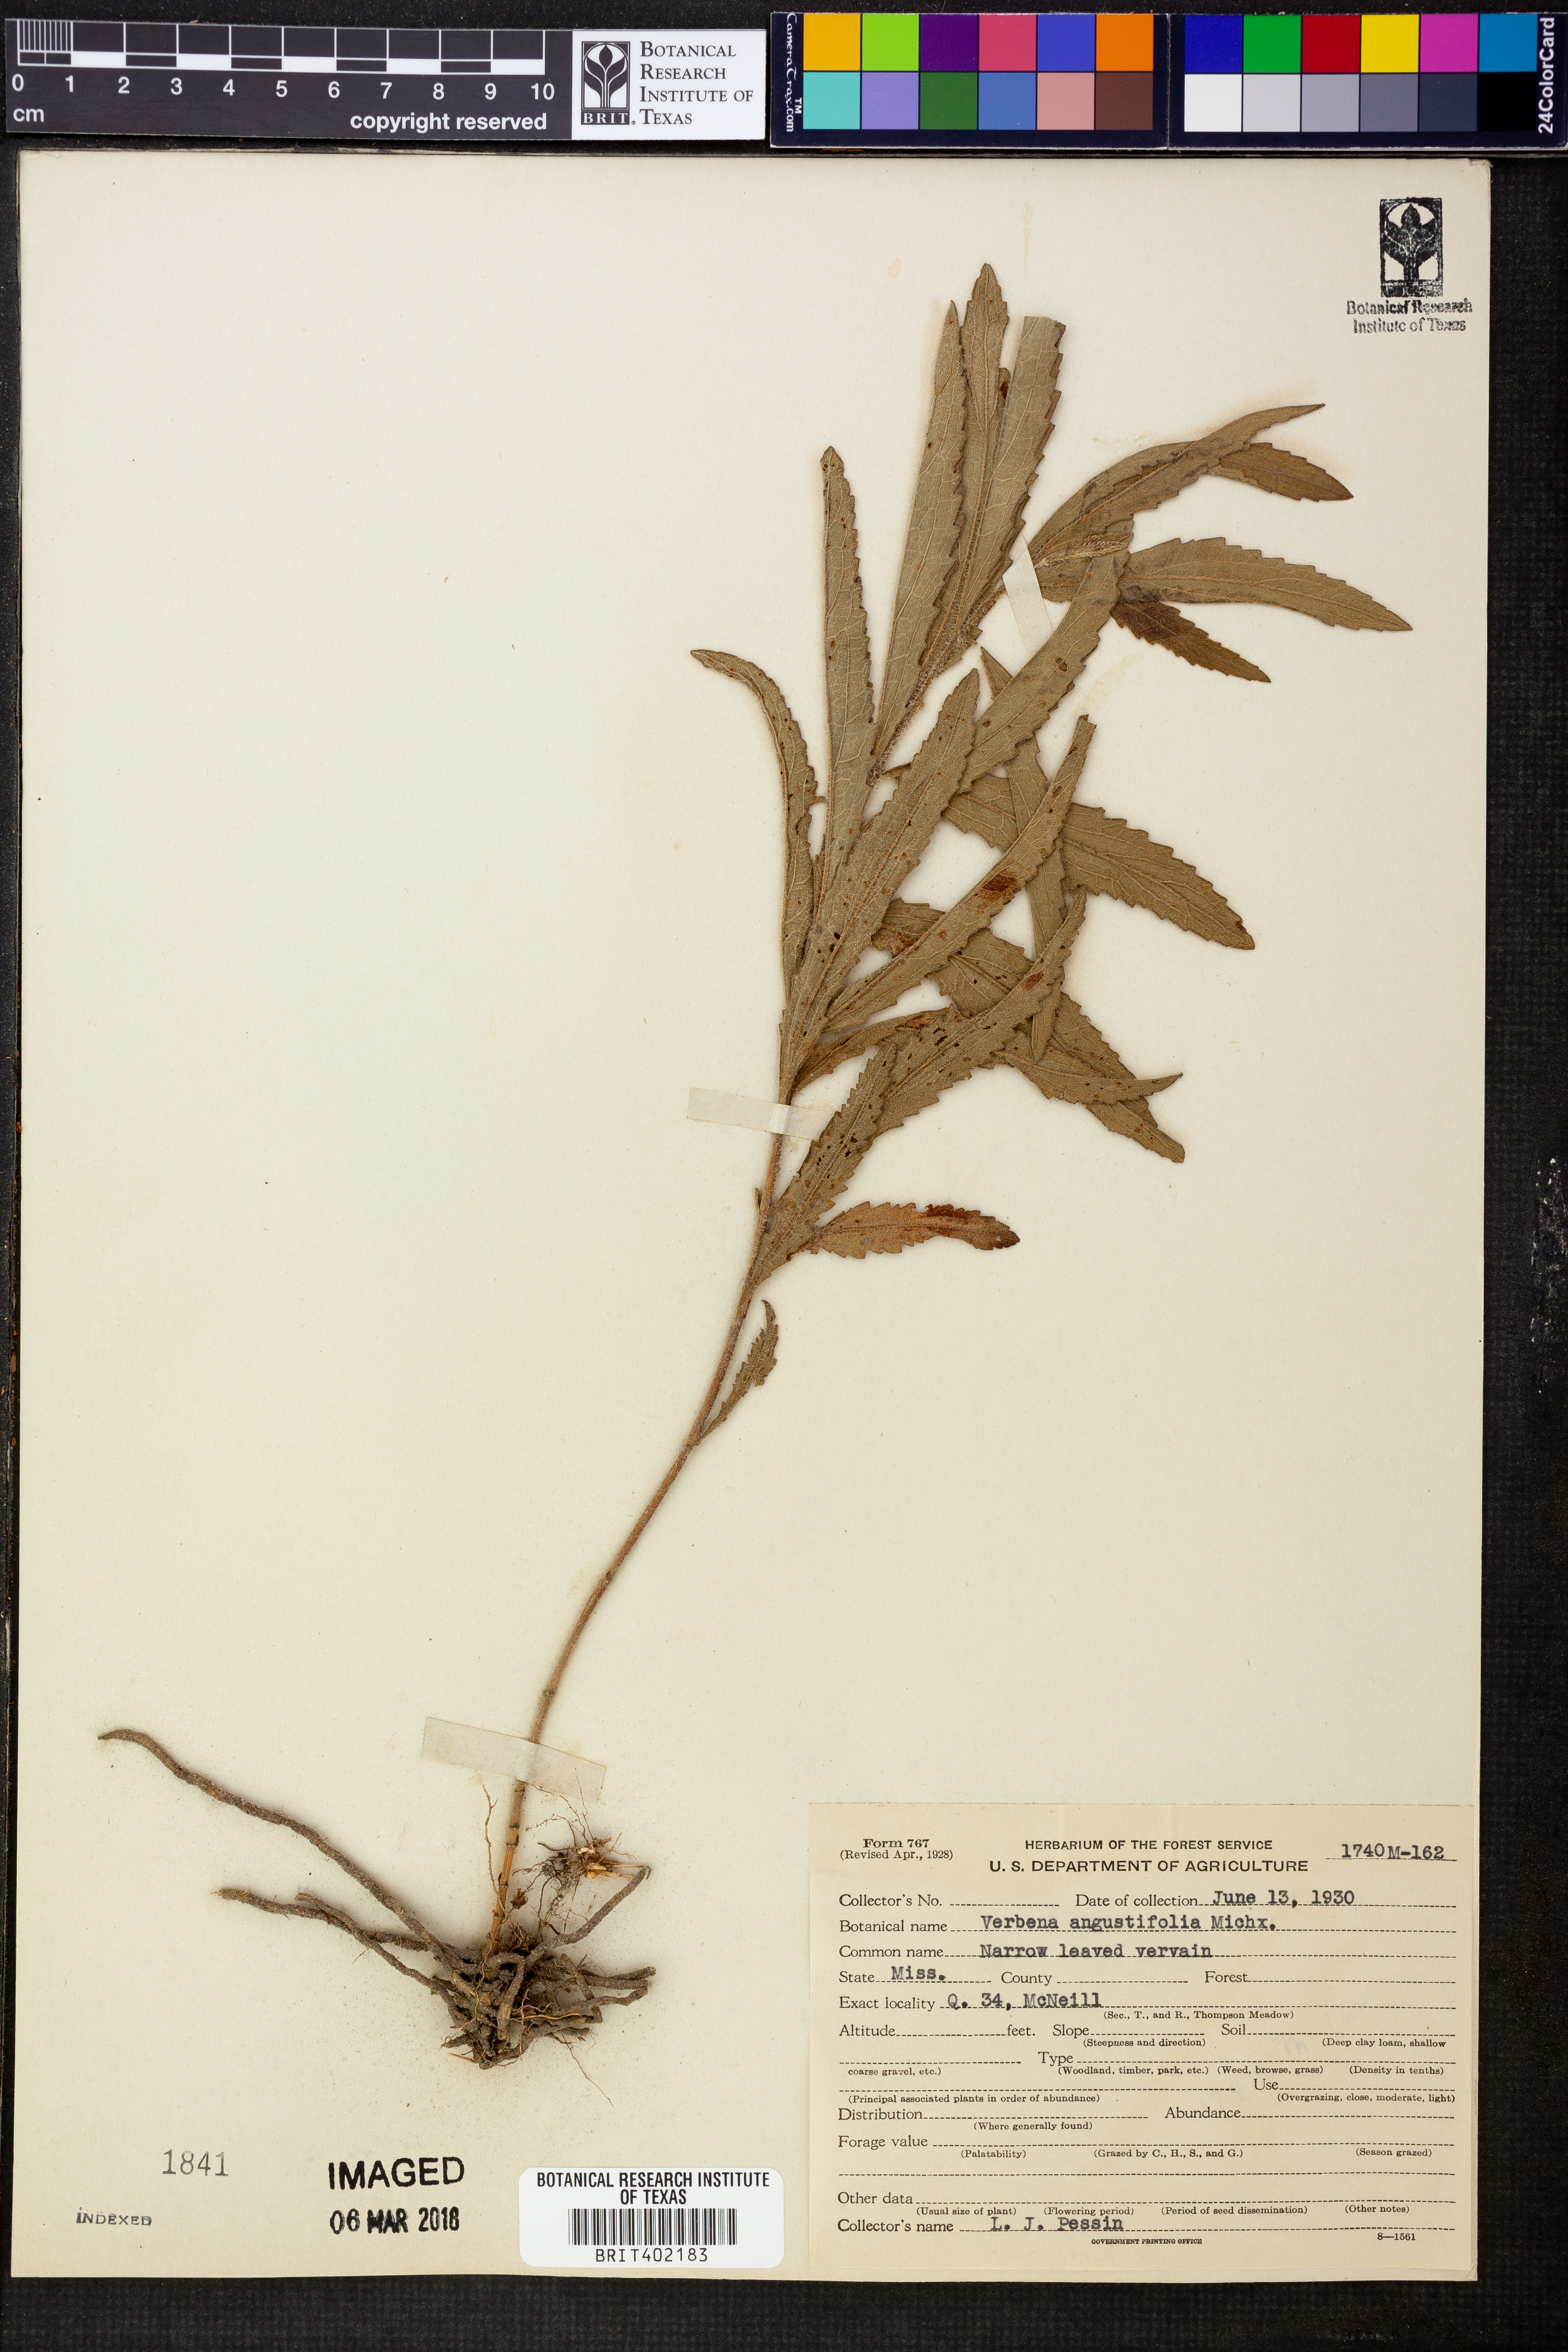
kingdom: Plantae
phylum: Tracheophyta
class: Magnoliopsida
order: Lamiales
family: Verbenaceae
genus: Verbena
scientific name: Verbena simplex
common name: Narrow-leaf vervain
